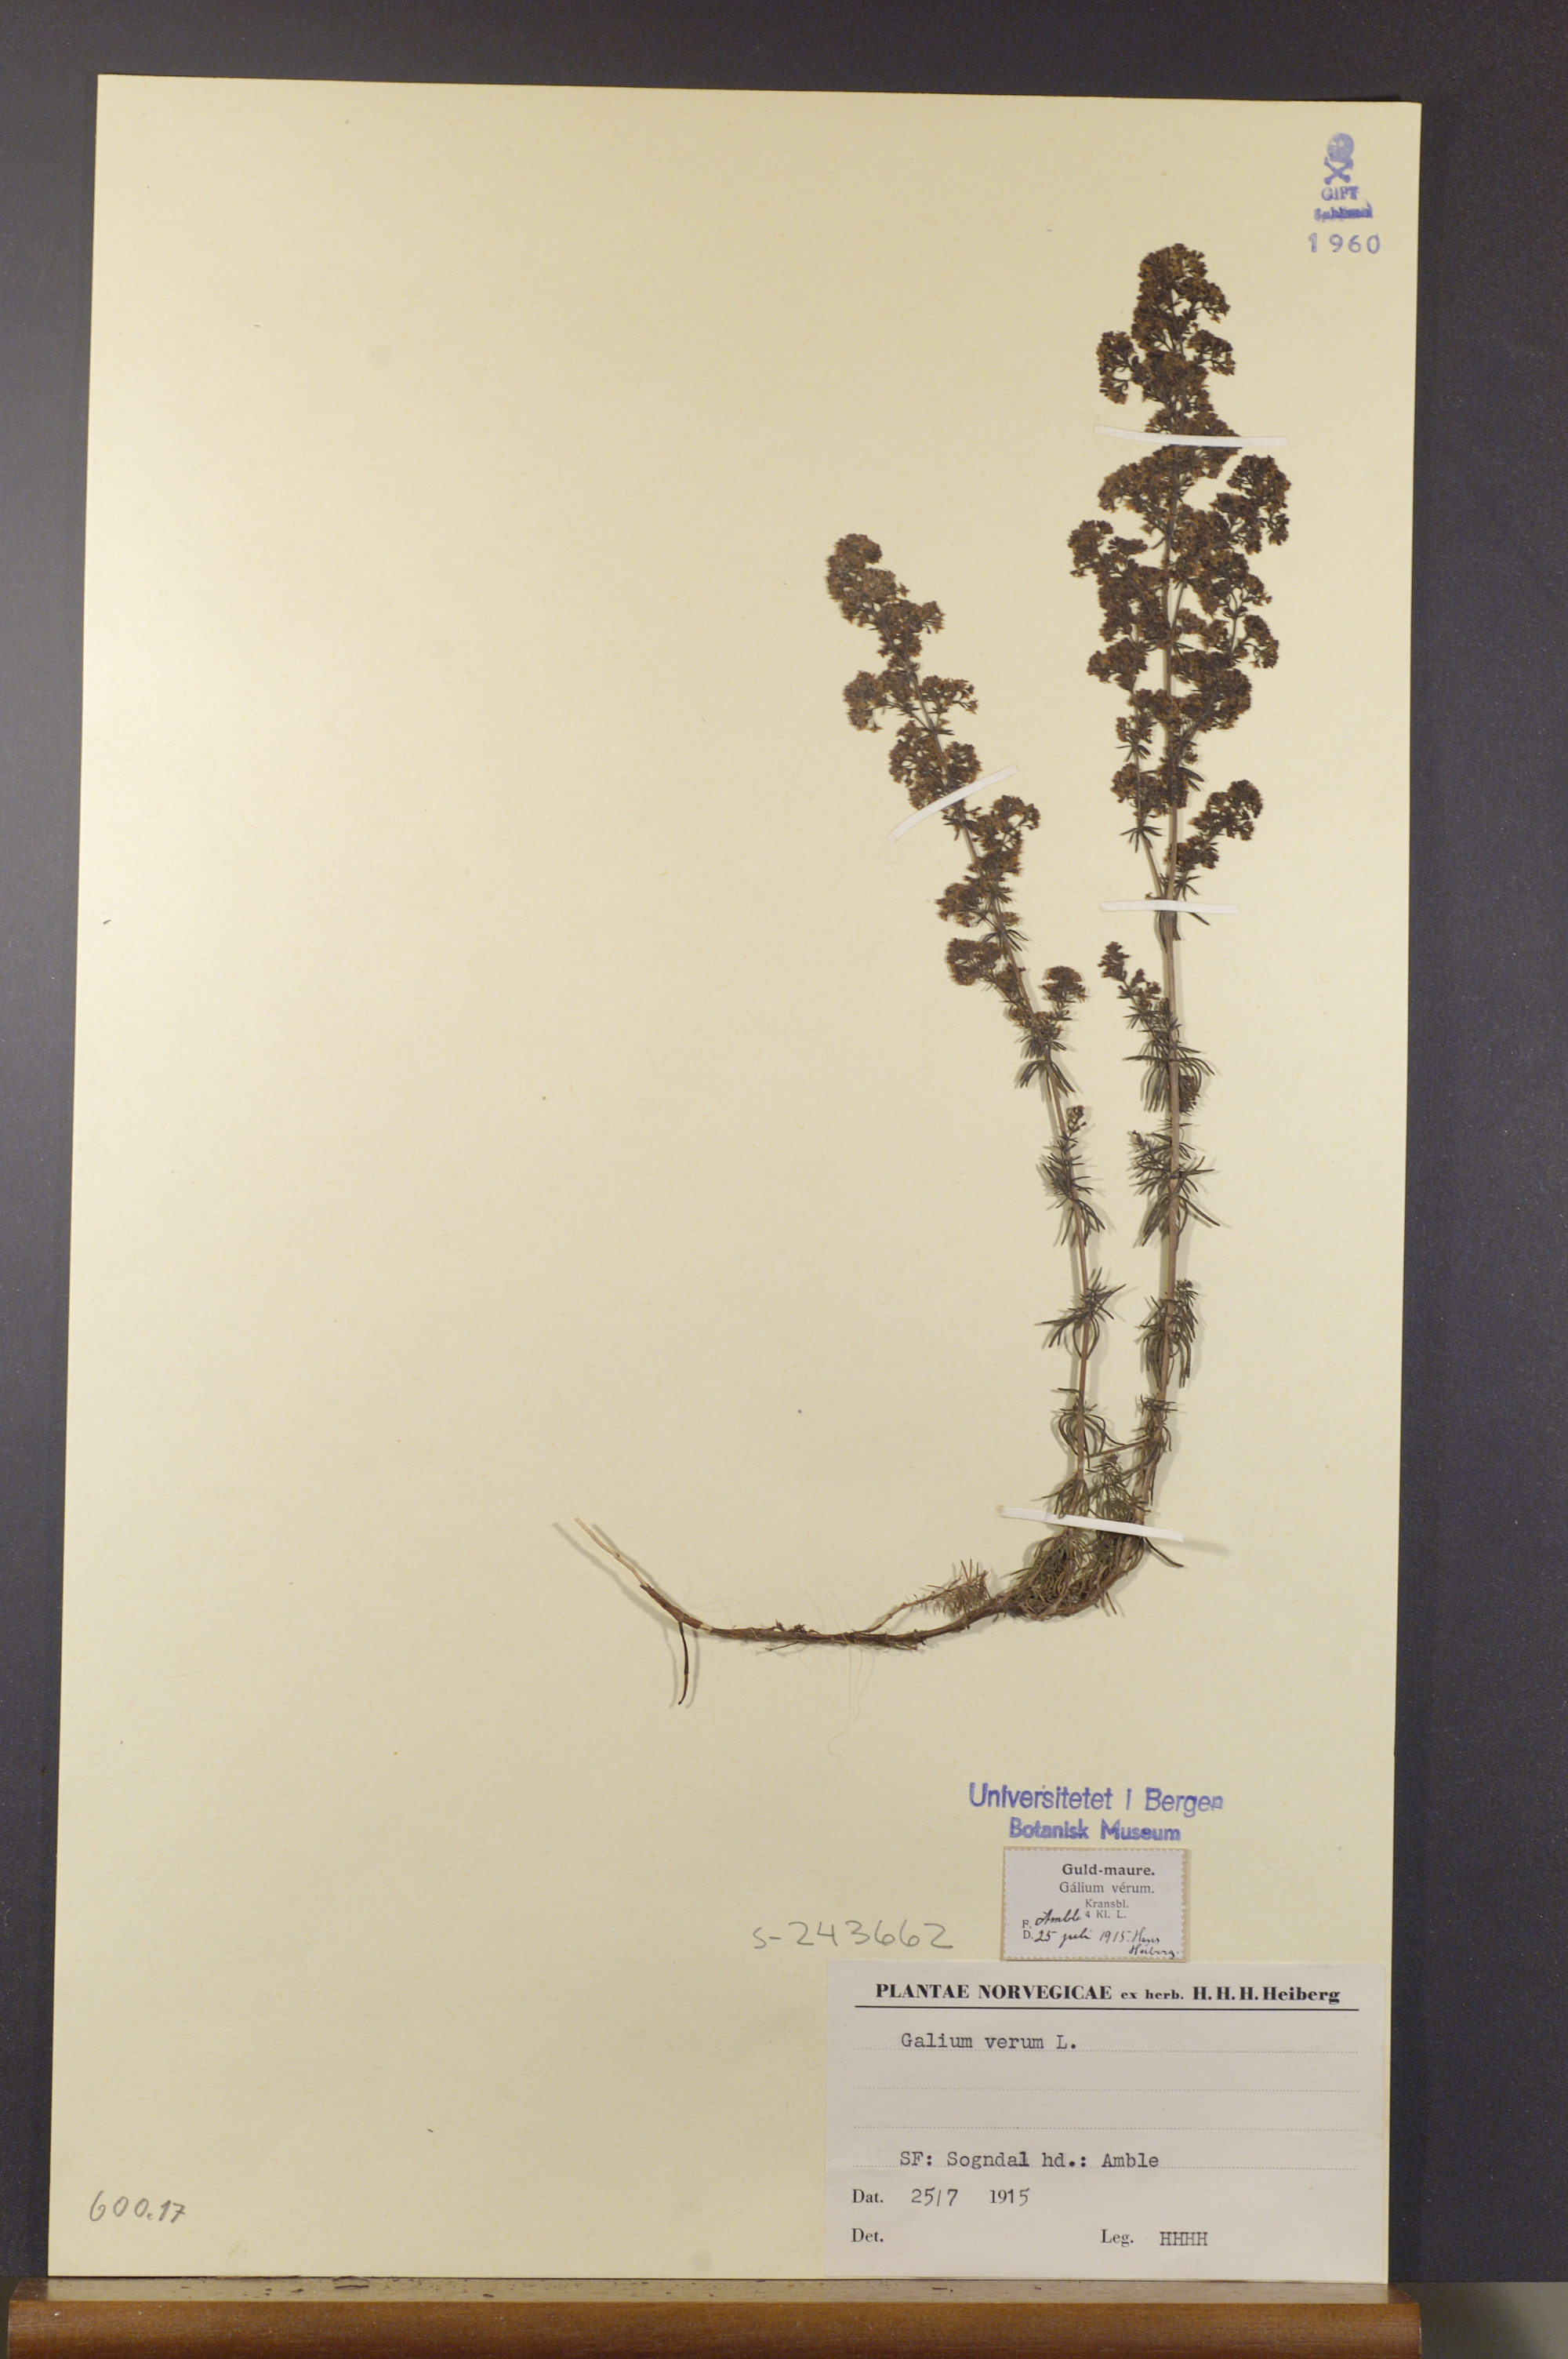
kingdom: Plantae
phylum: Tracheophyta
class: Magnoliopsida
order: Gentianales
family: Rubiaceae
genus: Galium
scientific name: Galium verum
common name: Lady's bedstraw
